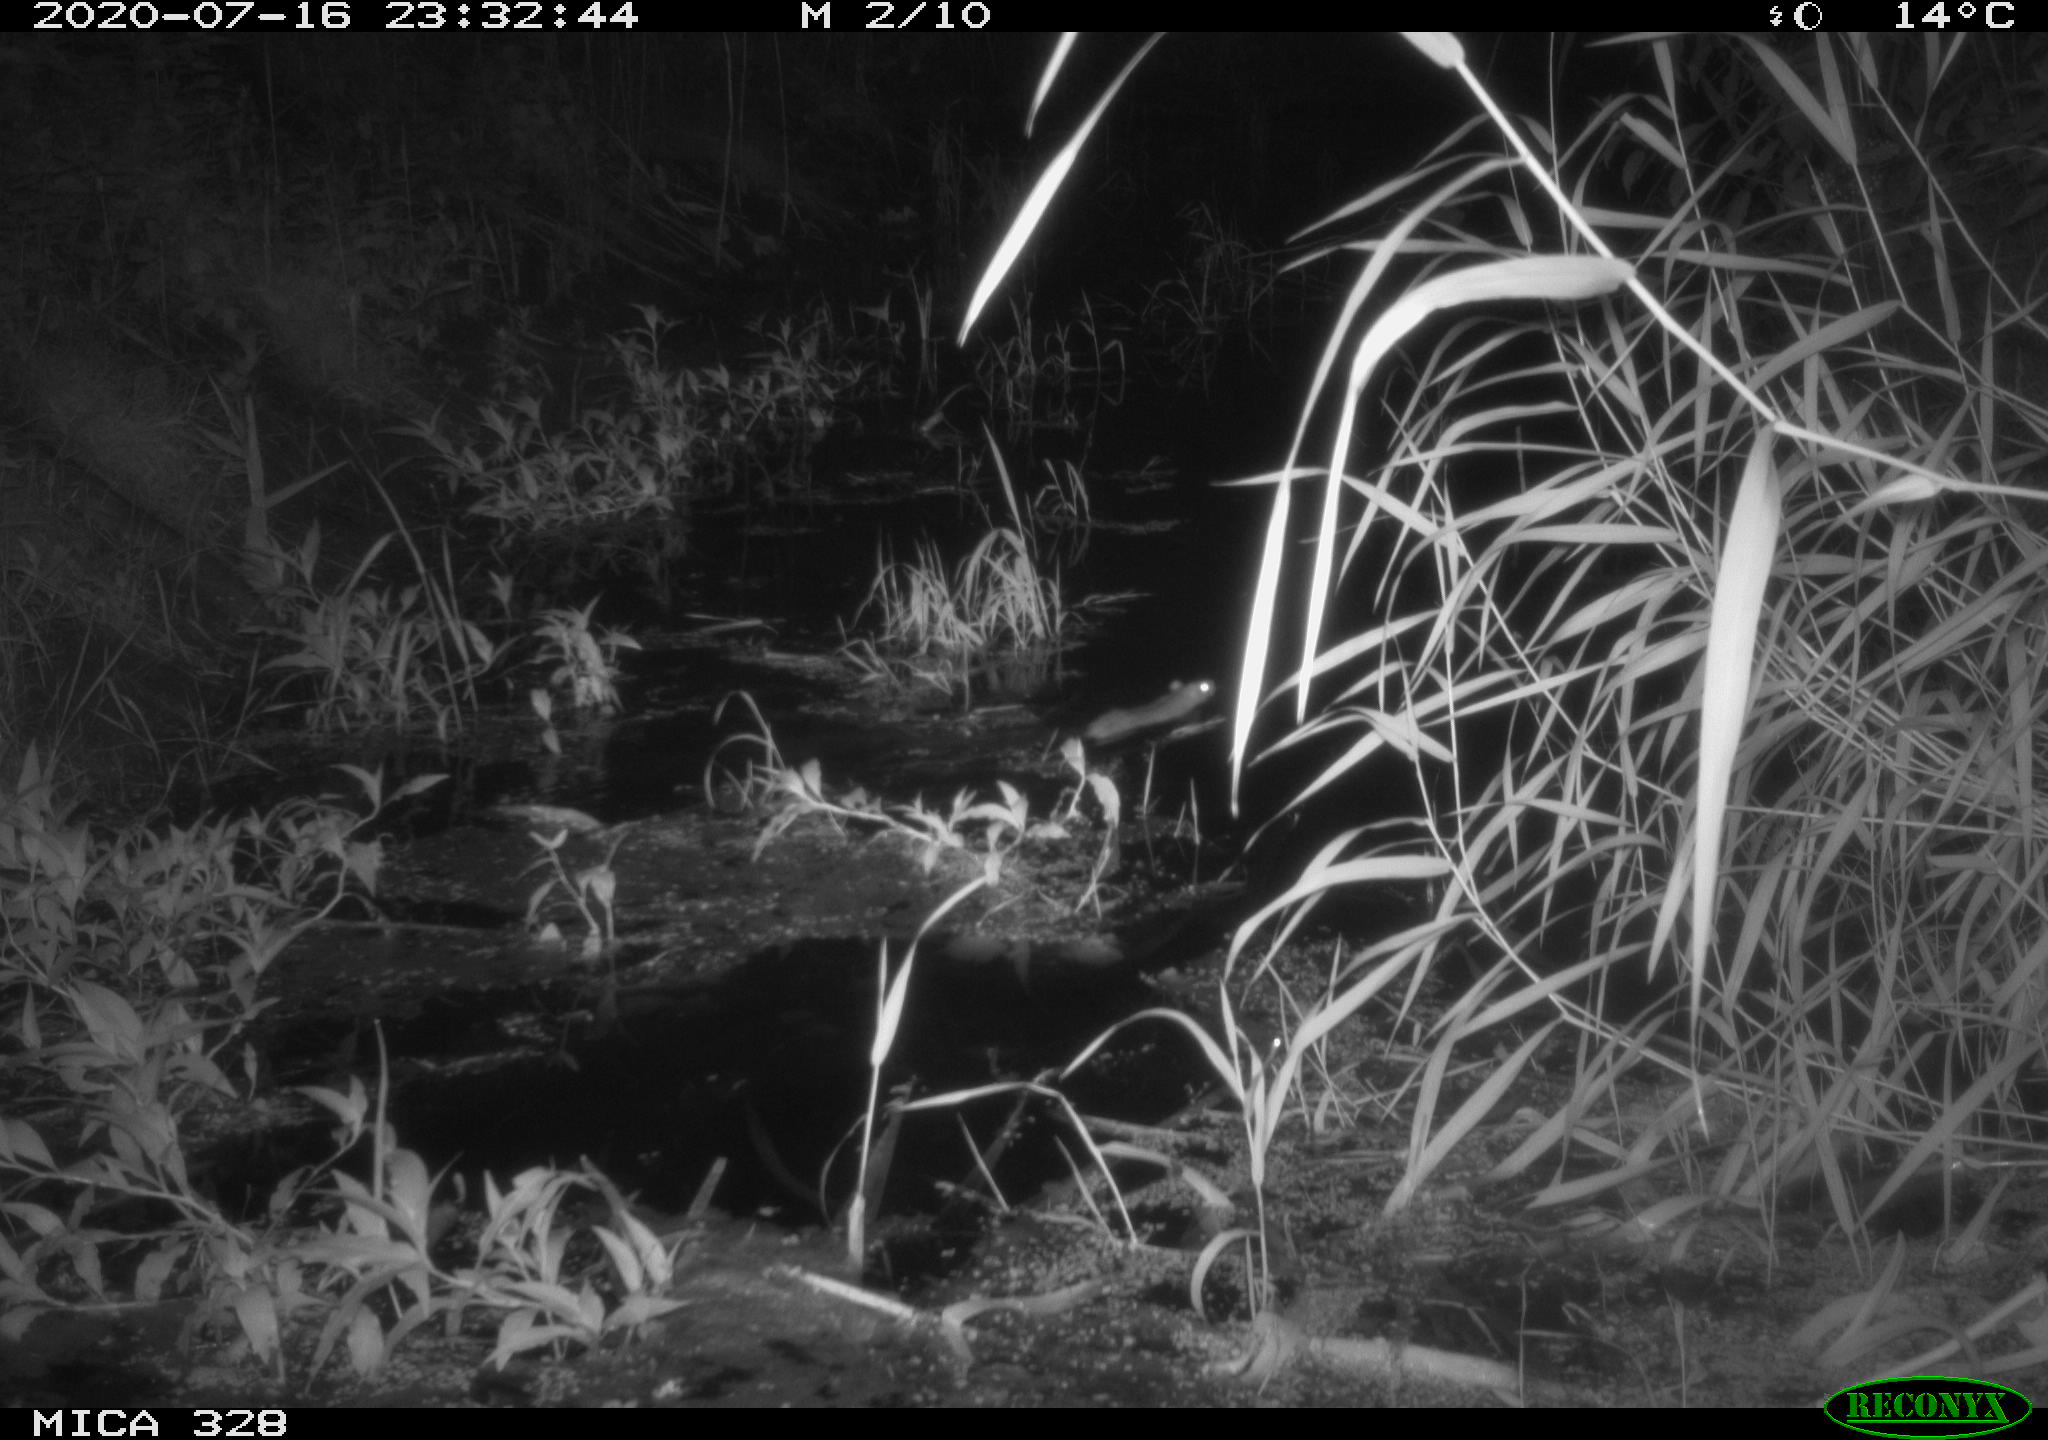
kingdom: Animalia
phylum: Chordata
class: Mammalia
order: Rodentia
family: Muridae
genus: Rattus
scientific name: Rattus norvegicus
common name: Brown rat
